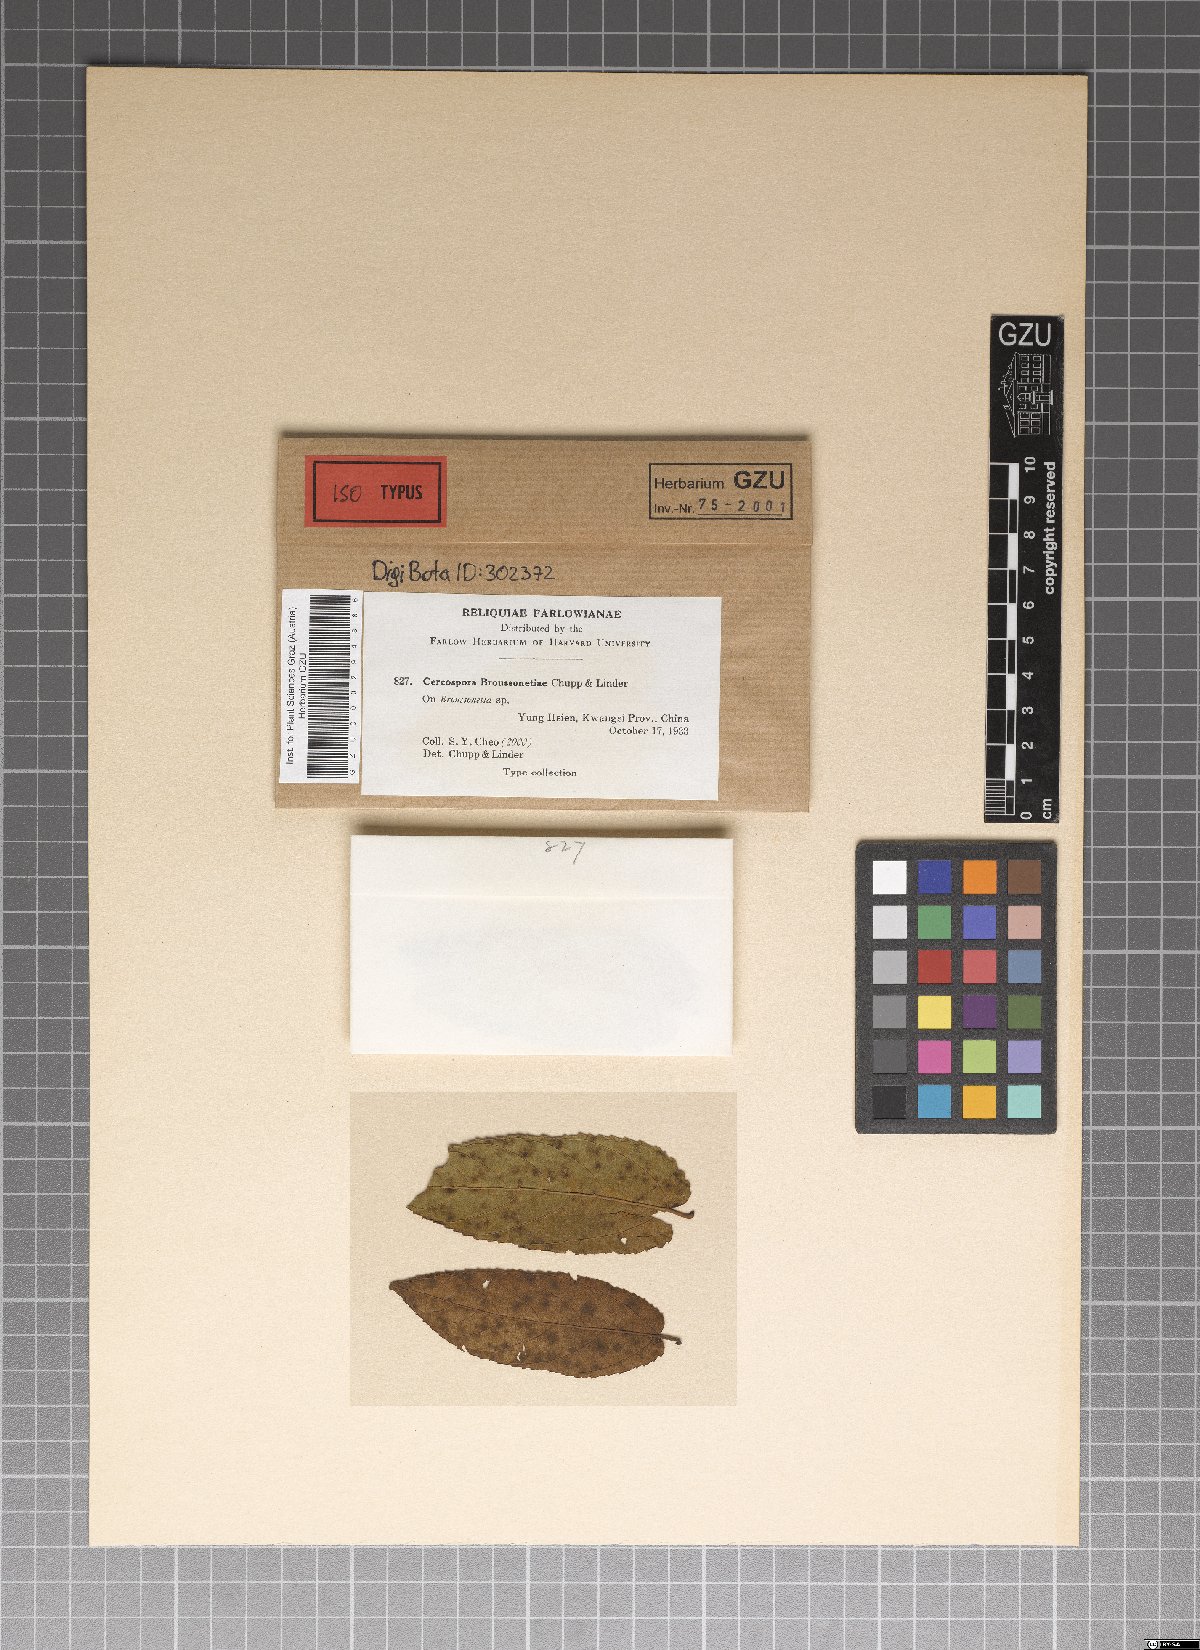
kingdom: Fungi
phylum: Ascomycota
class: Dothideomycetes
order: Mycosphaerellales
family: Mycosphaerellaceae
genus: Pseudocercospora
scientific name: Pseudocercospora broussonetiae
